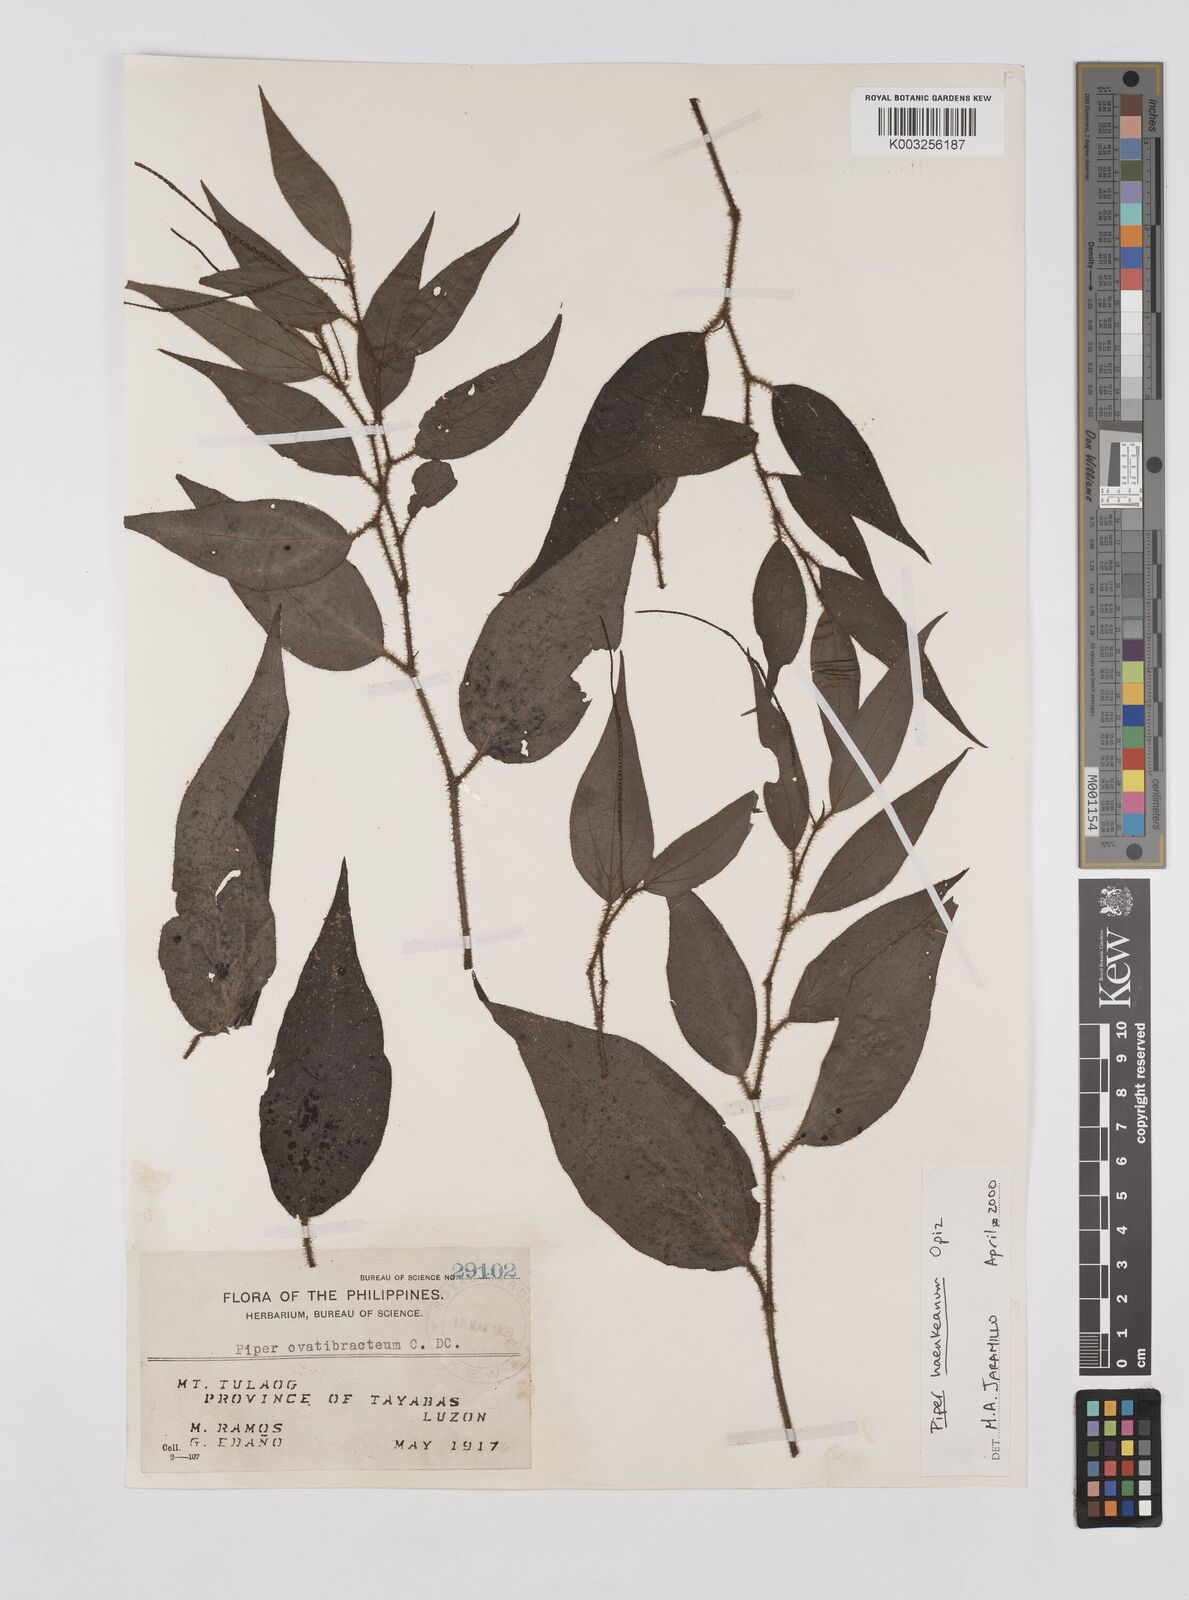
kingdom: Plantae
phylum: Tracheophyta
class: Magnoliopsida
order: Piperales
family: Piperaceae
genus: Piper
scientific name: Piper lanatum
